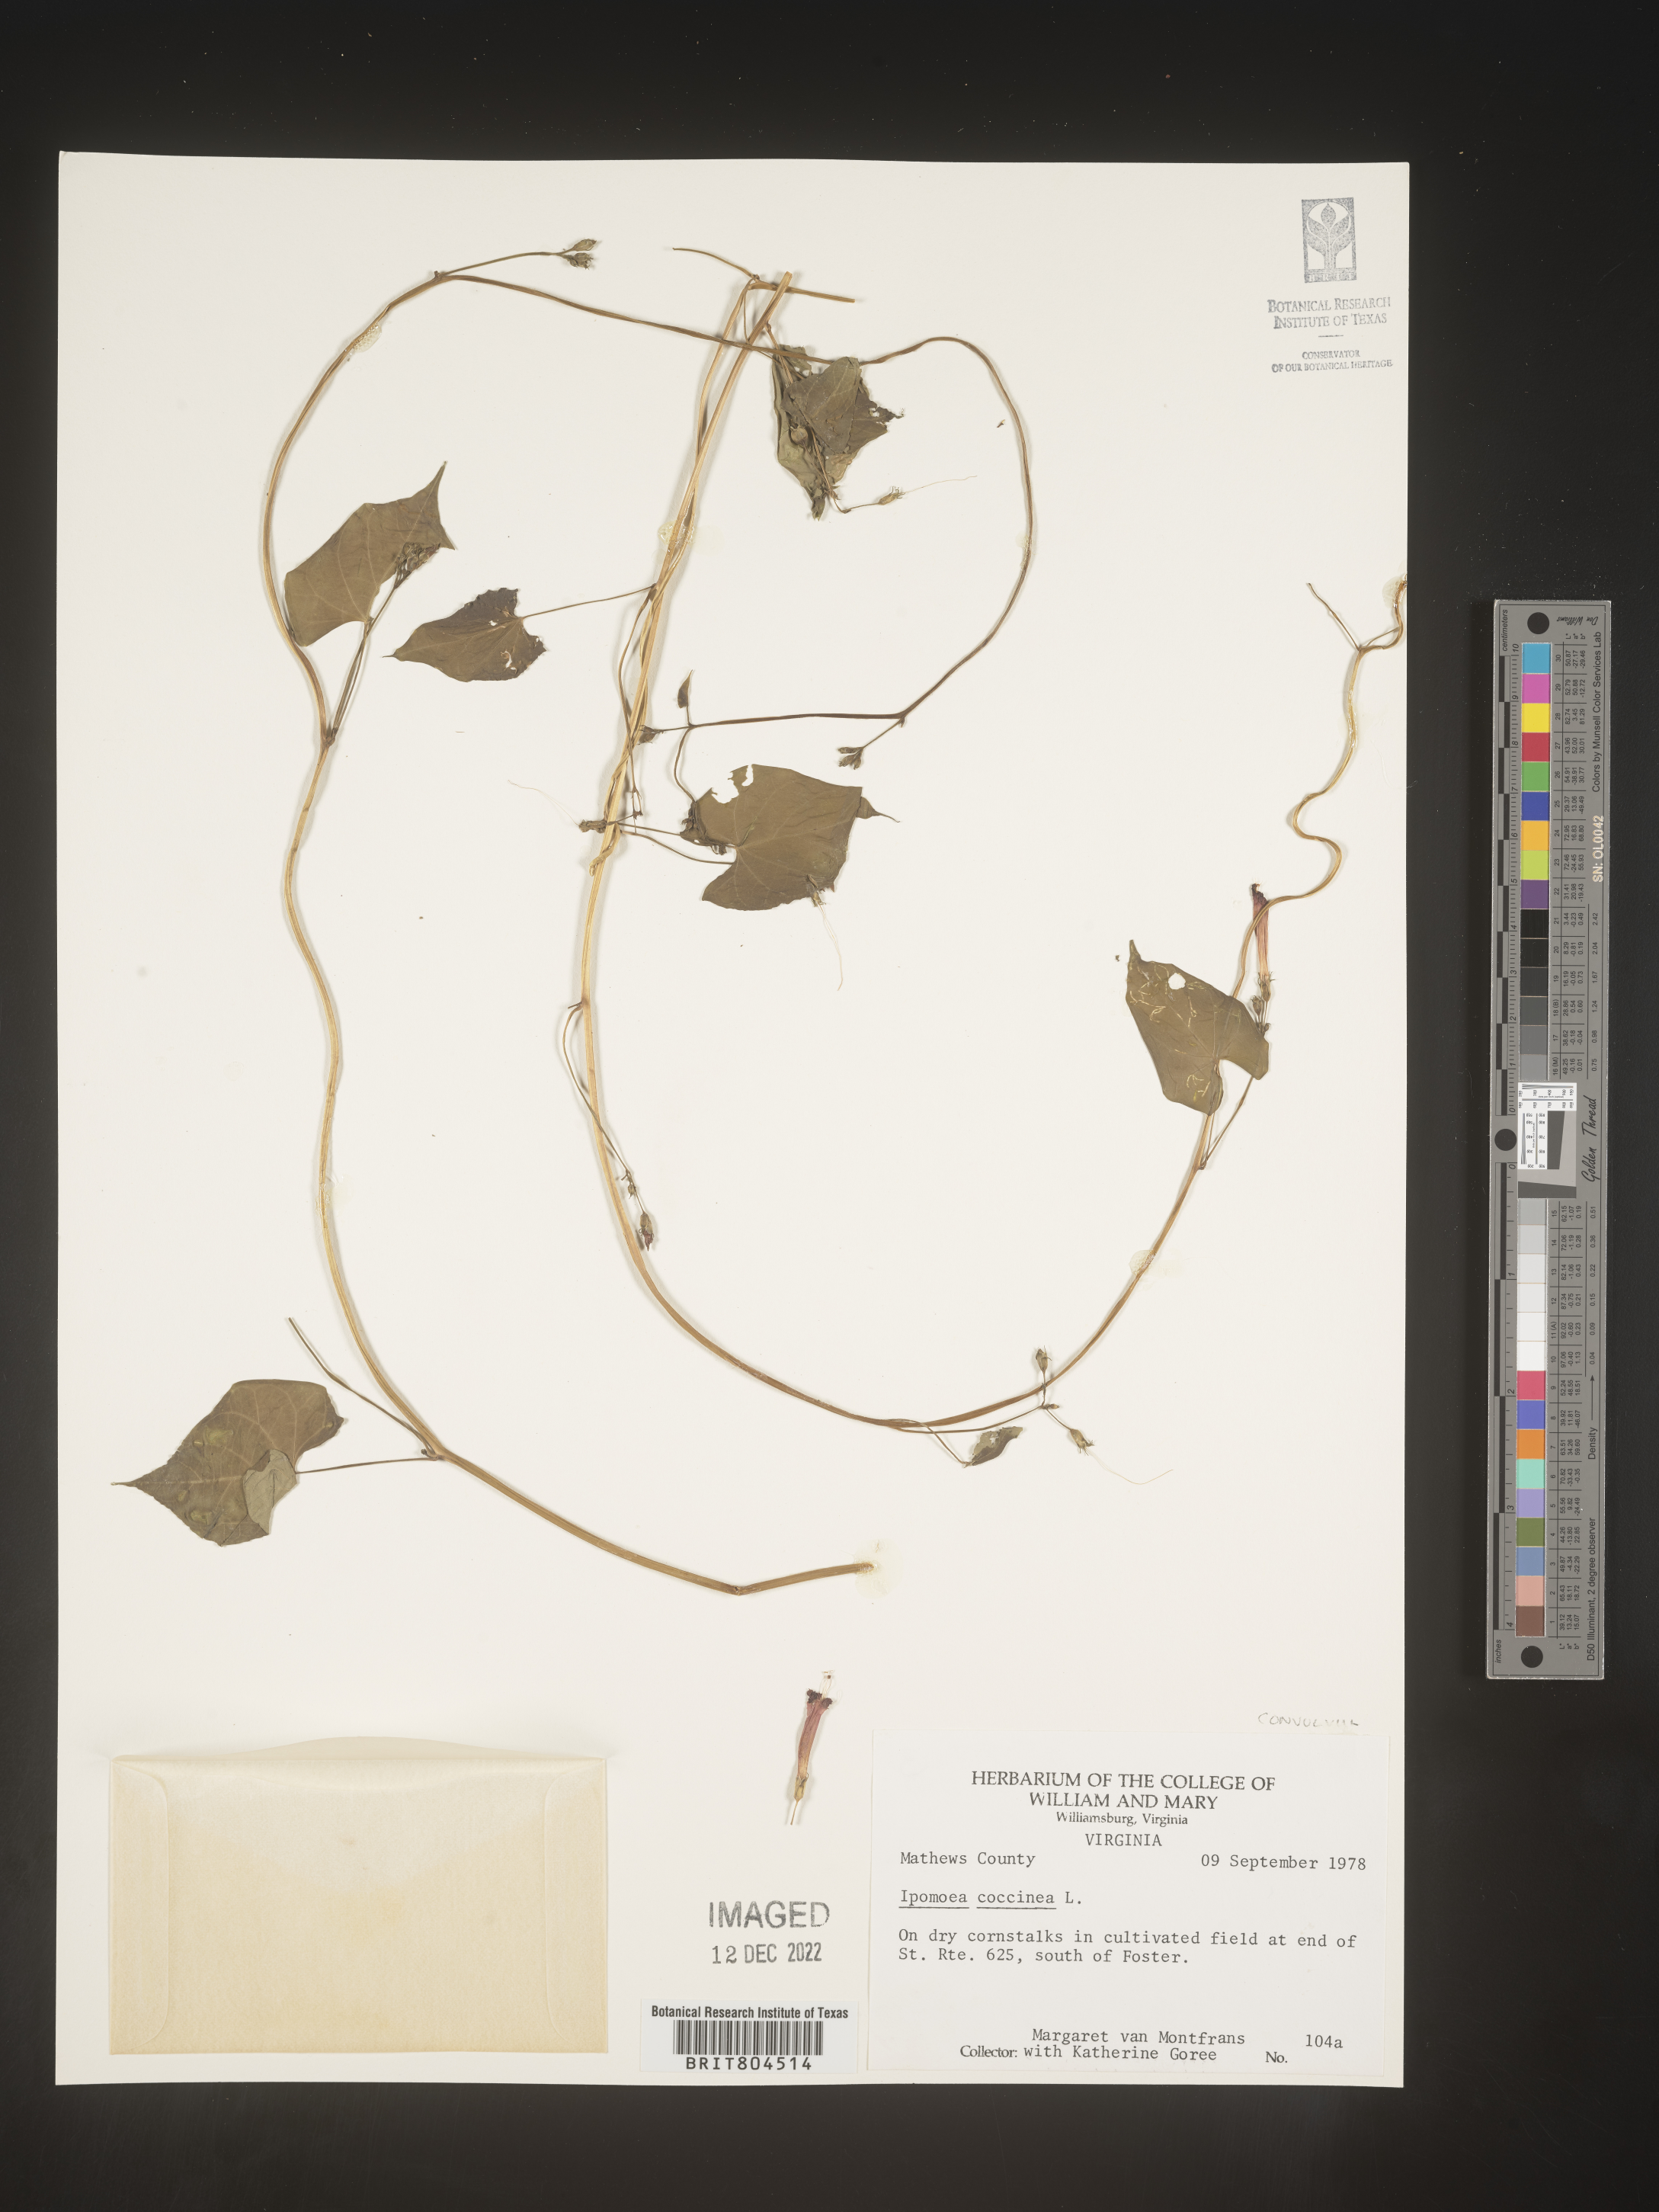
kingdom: Plantae
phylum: Tracheophyta
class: Magnoliopsida
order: Solanales
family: Convolvulaceae
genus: Ipomoea
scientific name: Ipomoea coccinea
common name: Red morning-glory
